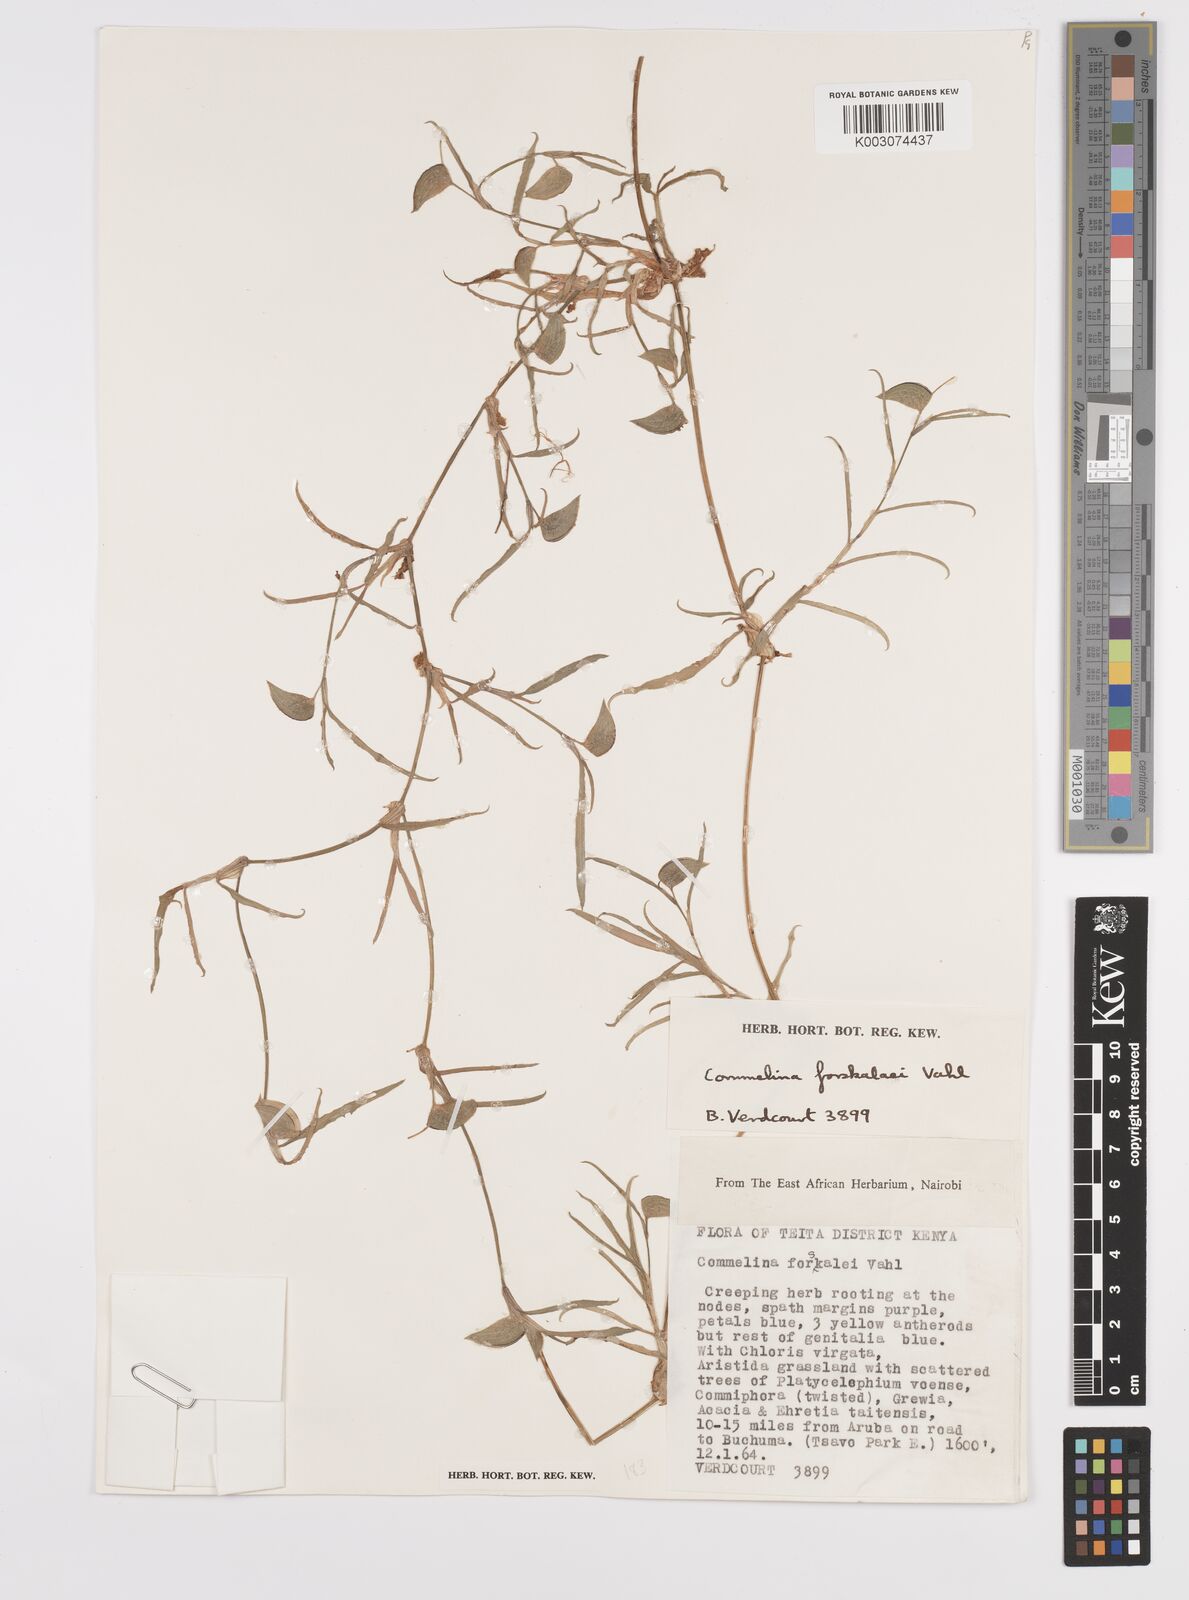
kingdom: Plantae
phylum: Tracheophyta
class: Liliopsida
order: Commelinales
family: Commelinaceae
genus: Commelina
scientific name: Commelina forskaolii
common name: Rat's ear
